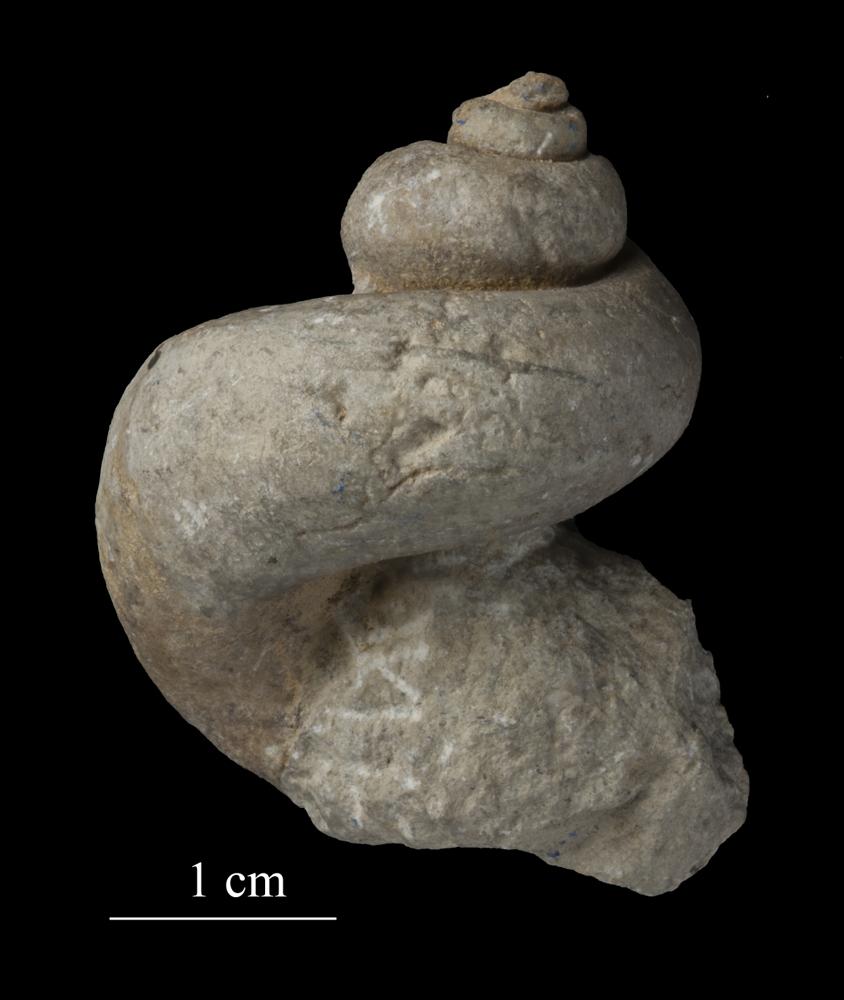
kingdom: Animalia
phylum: Mollusca
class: Gastropoda
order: Trochida
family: Turbinidae
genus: Turbo
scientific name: Turbo
